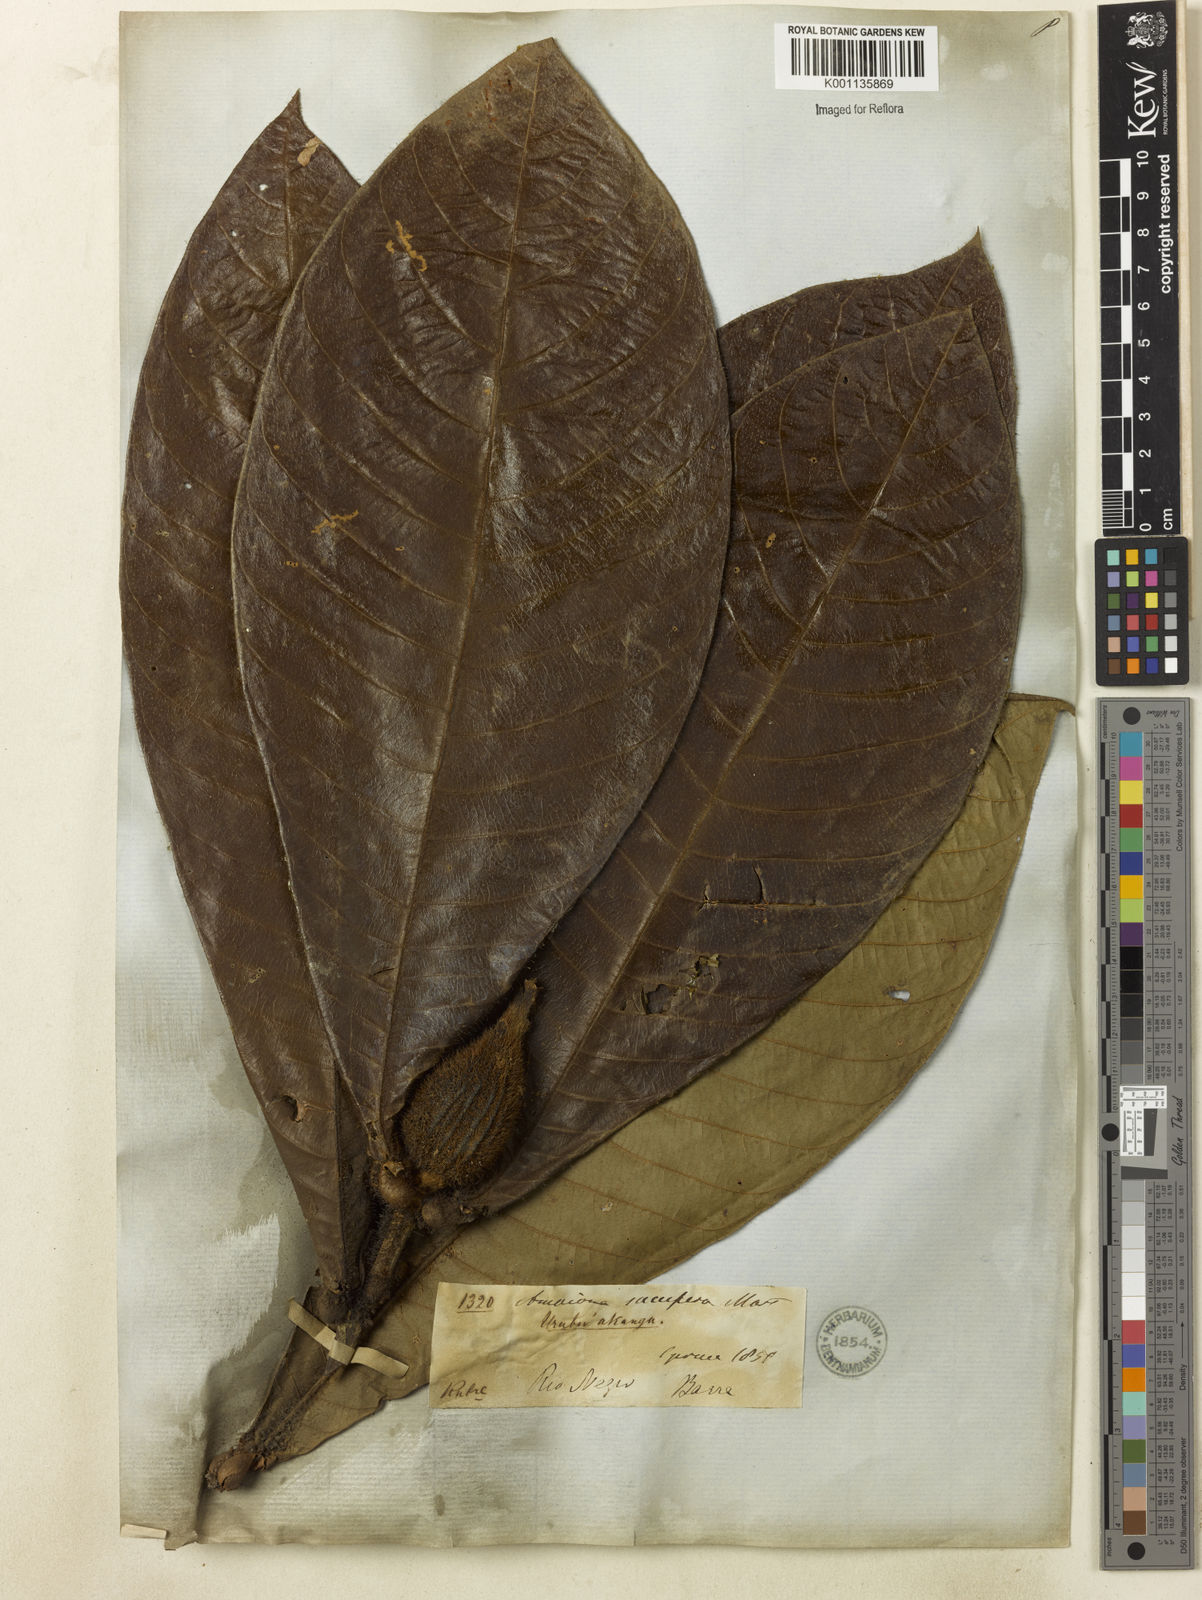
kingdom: Plantae
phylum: Tracheophyta
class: Magnoliopsida
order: Gentianales
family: Rubiaceae
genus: Duroia
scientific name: Duroia saccifera
